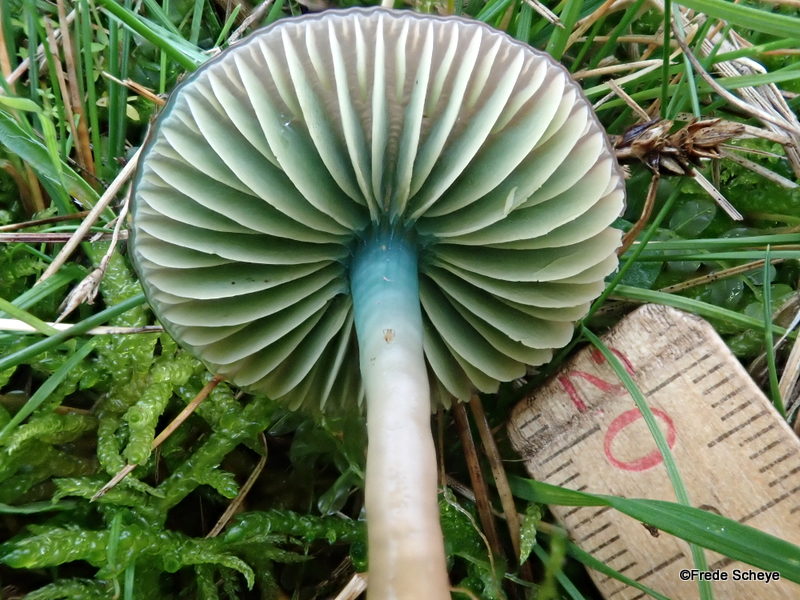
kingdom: Fungi
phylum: Basidiomycota
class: Agaricomycetes
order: Agaricales
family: Hygrophoraceae
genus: Gliophorus
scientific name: Gliophorus psittacinus
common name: papegøje-vokshat
